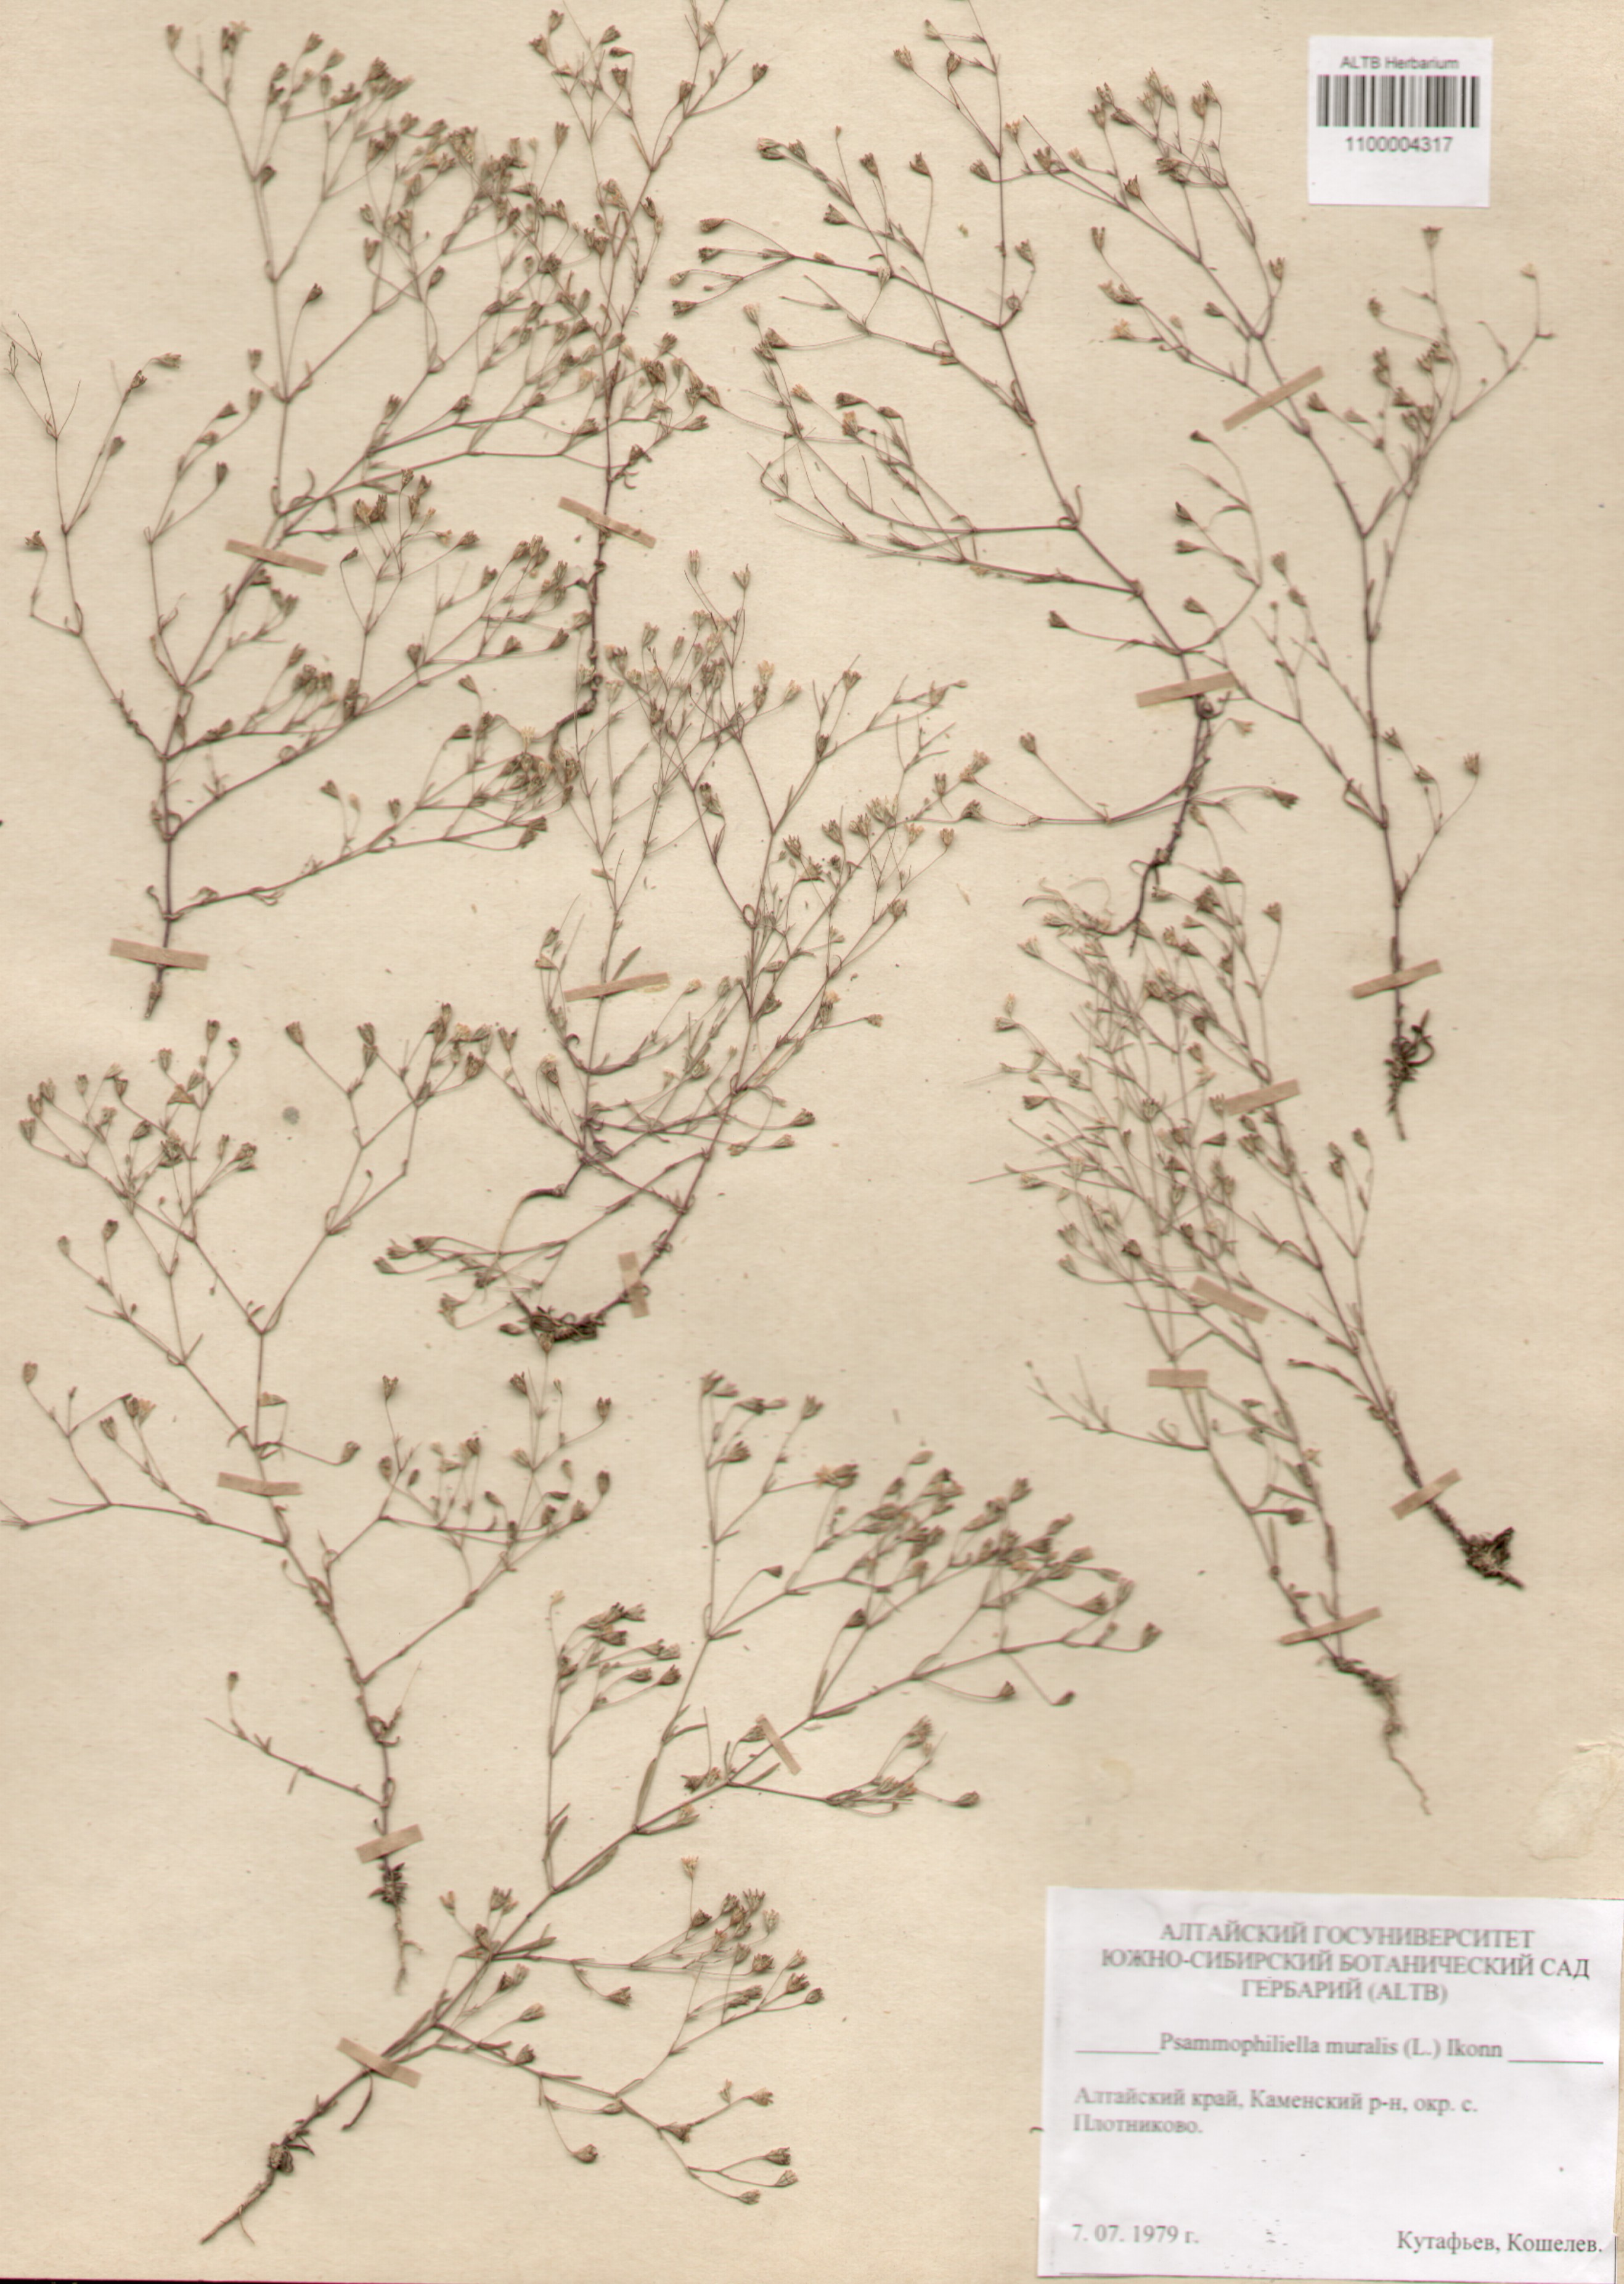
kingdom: Plantae
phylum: Tracheophyta
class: Magnoliopsida
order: Caryophyllales
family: Caryophyllaceae
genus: Psammophiliella
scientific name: Psammophiliella muralis
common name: Cushion baby's-breath
